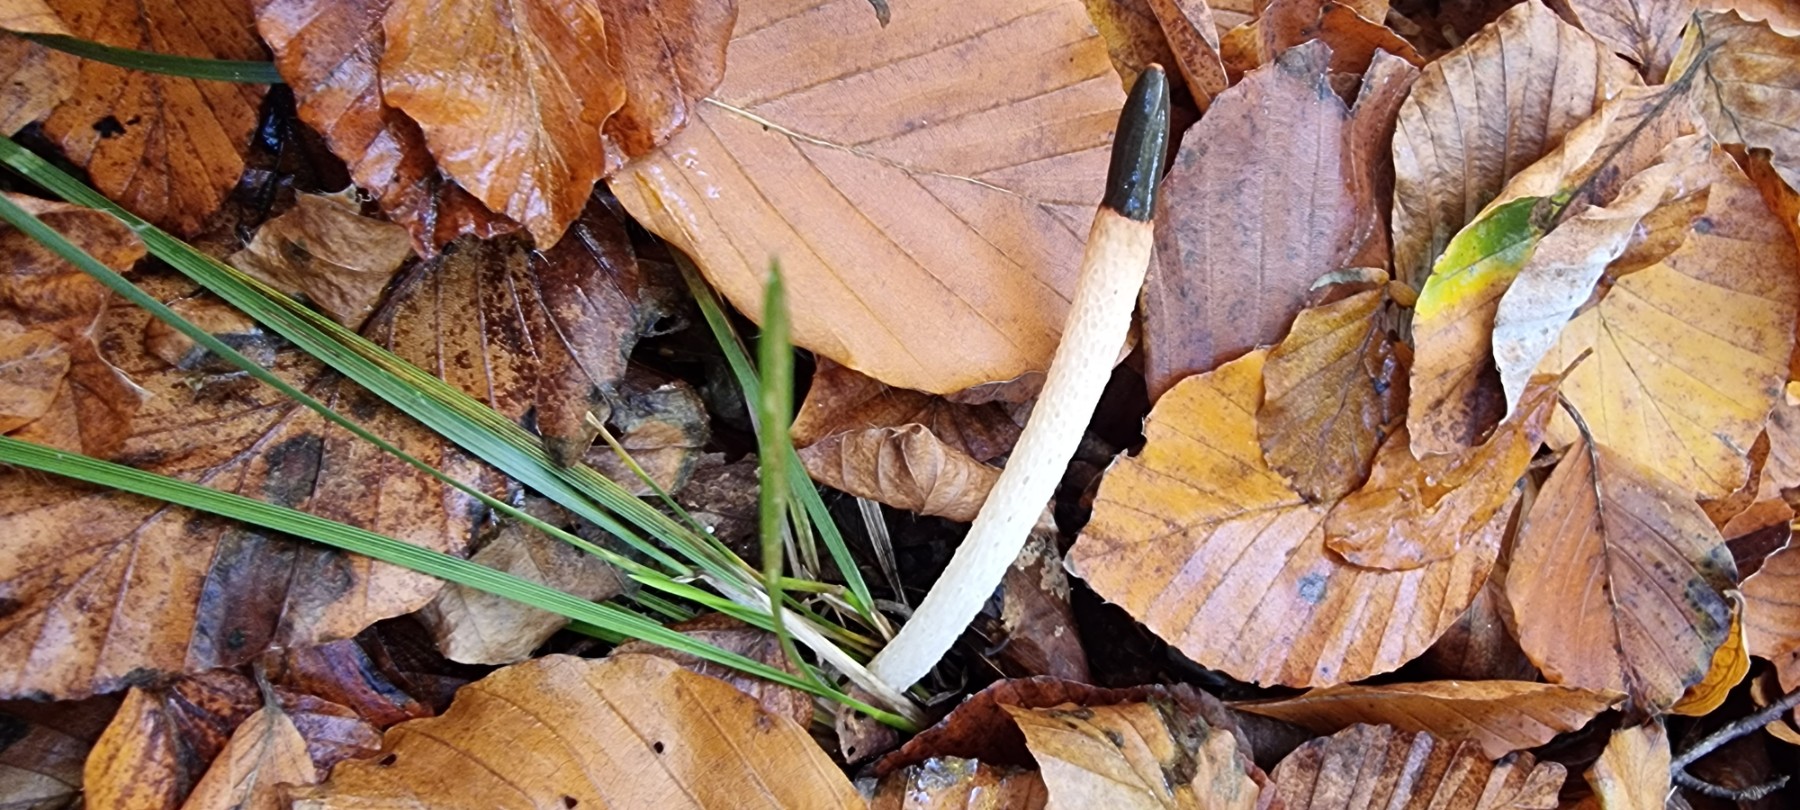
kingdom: Fungi
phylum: Basidiomycota
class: Agaricomycetes
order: Phallales
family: Phallaceae
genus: Mutinus
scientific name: Mutinus caninus
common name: hunde-stinksvamp
